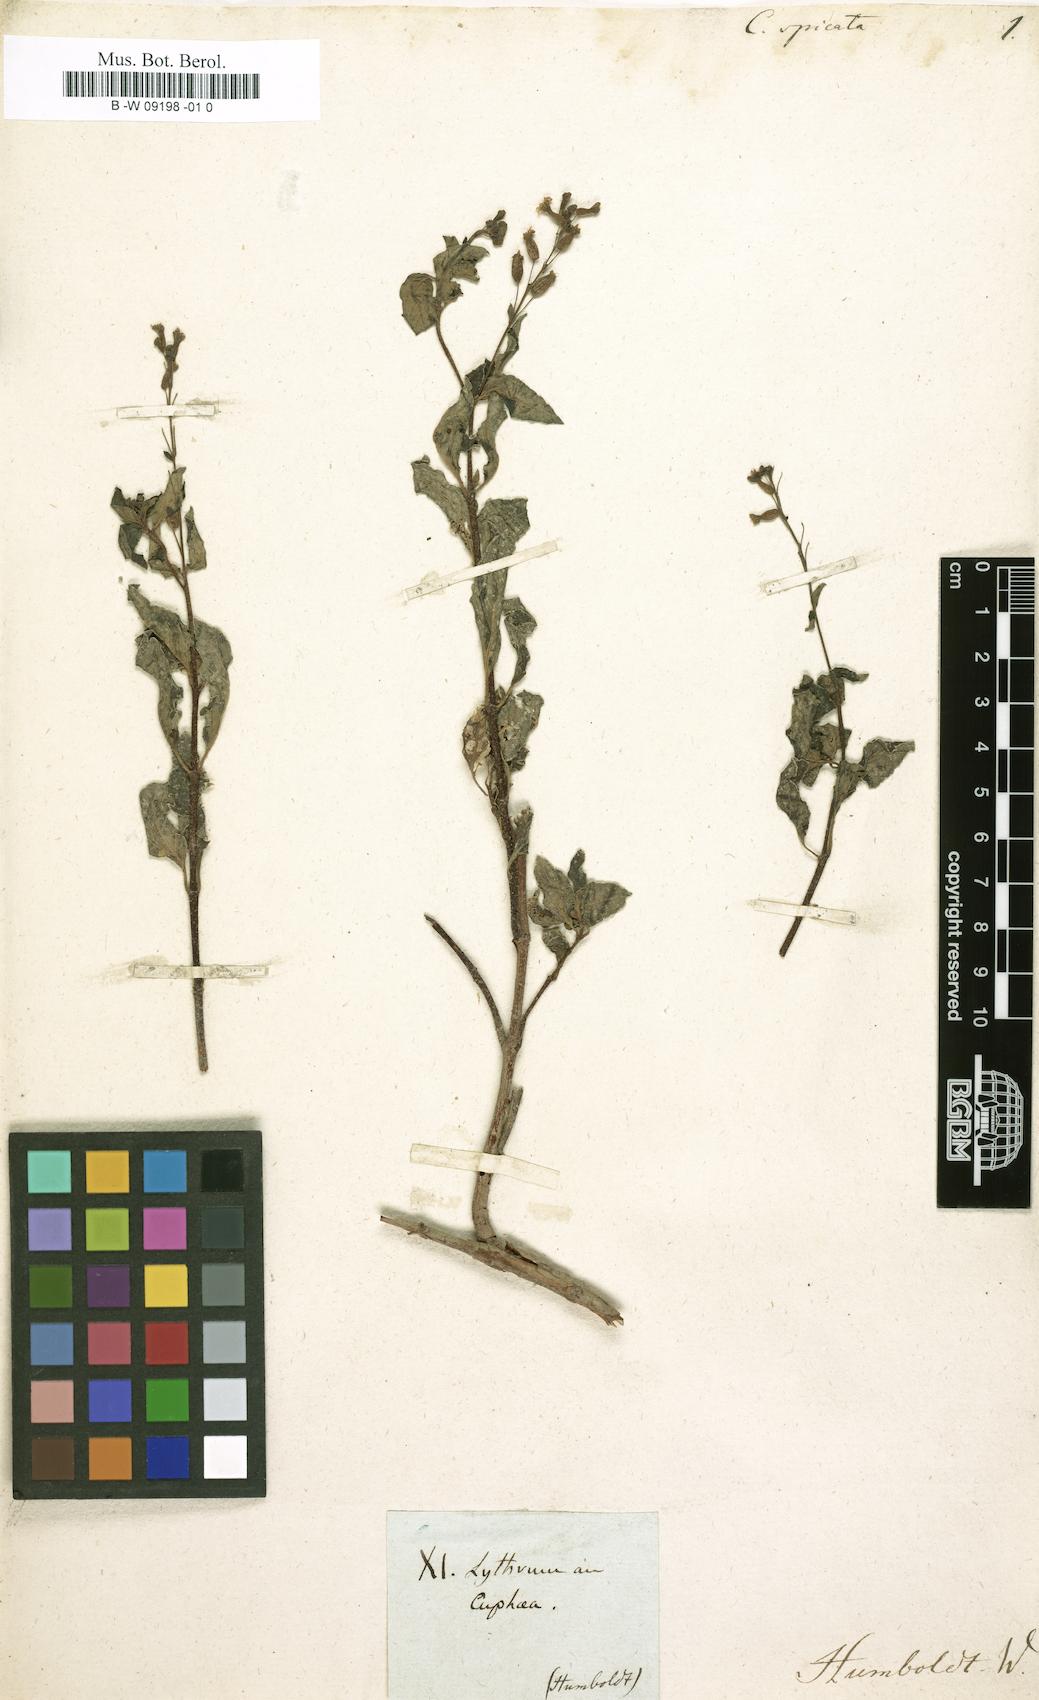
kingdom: Plantae
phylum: Tracheophyta
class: Magnoliopsida
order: Myrtales
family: Lythraceae
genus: Cuphea
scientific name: Cuphea racemosa
